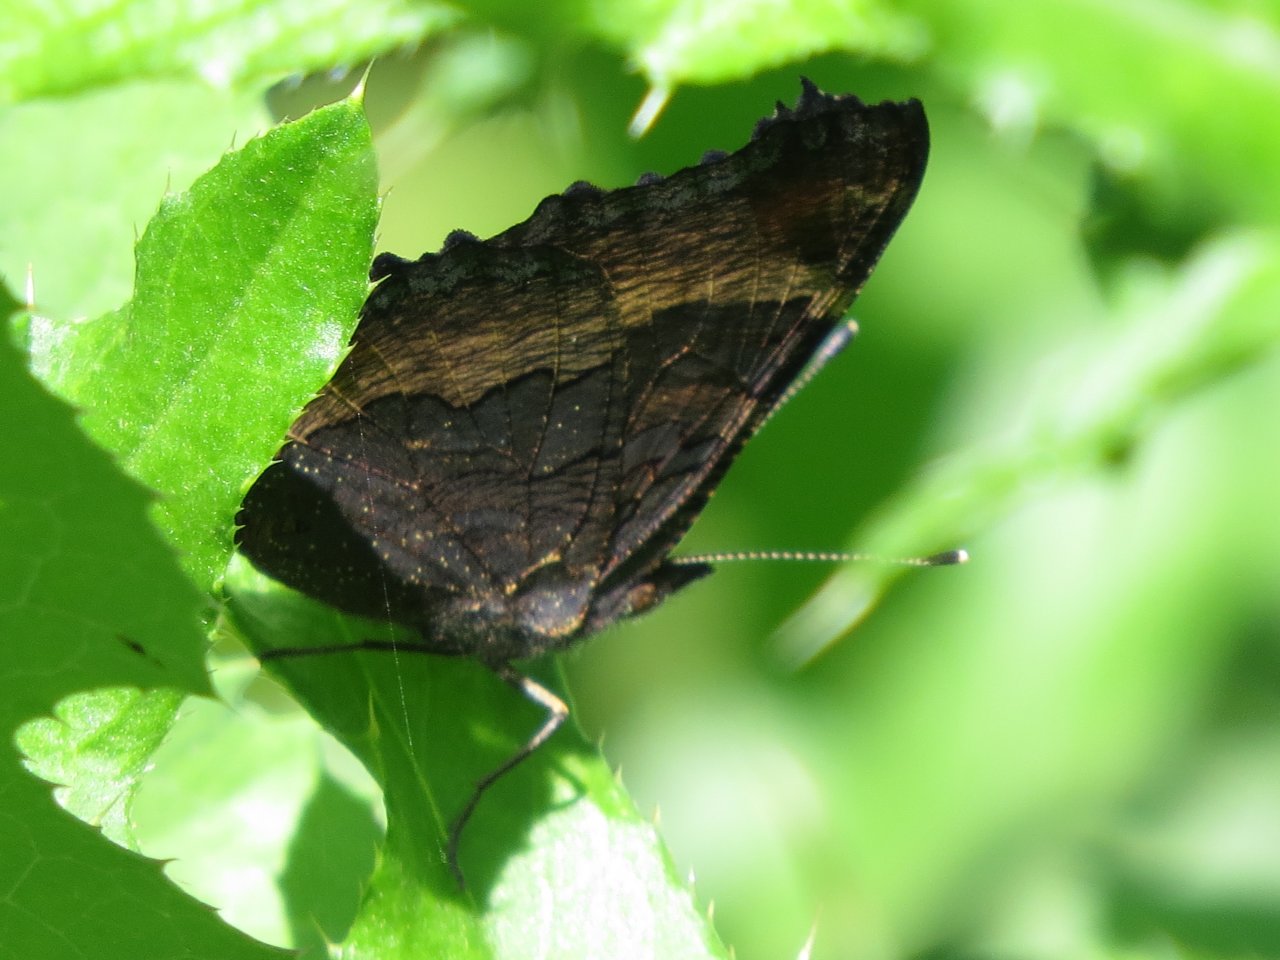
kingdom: Animalia
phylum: Arthropoda
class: Insecta
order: Lepidoptera
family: Nymphalidae
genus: Aglais
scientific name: Aglais milberti
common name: Milbert's Tortoiseshell
